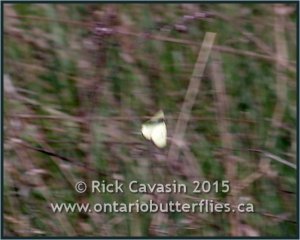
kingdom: Animalia
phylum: Arthropoda
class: Insecta
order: Lepidoptera
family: Pieridae
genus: Colias
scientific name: Colias philodice
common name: Clouded Sulphur
